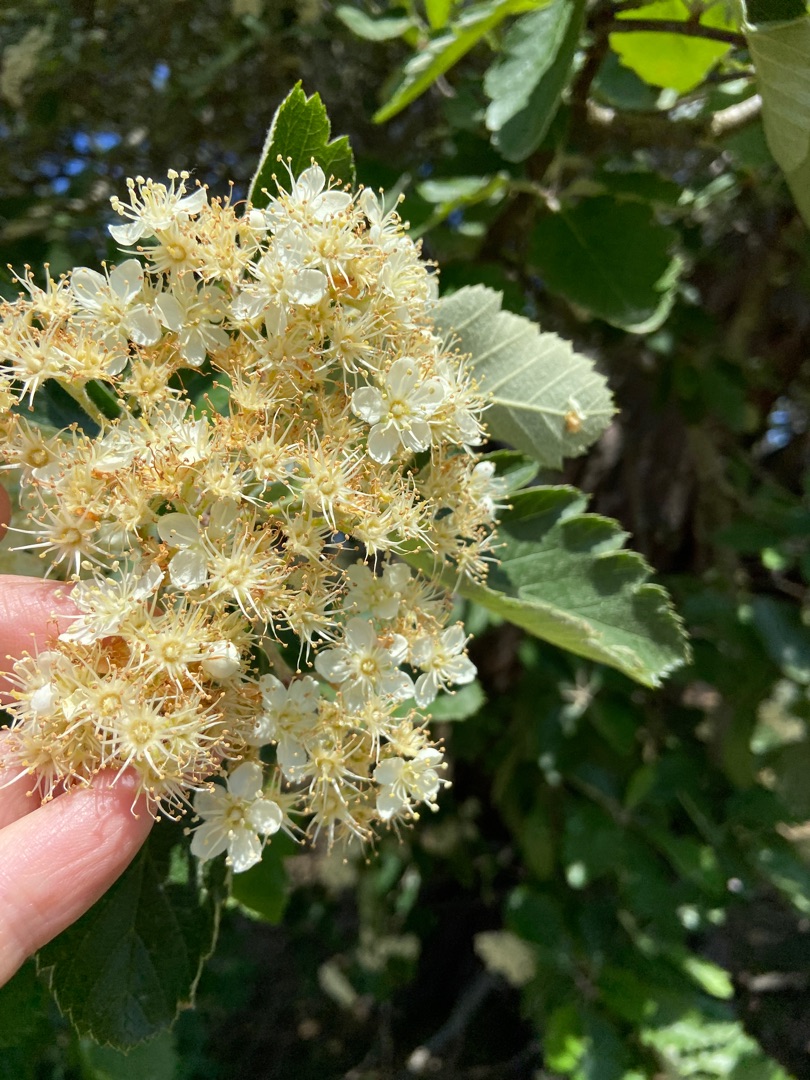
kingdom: Plantae
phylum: Tracheophyta
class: Magnoliopsida
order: Rosales
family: Rosaceae
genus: Scandosorbus
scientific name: Scandosorbus intermedia
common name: Selje-røn
